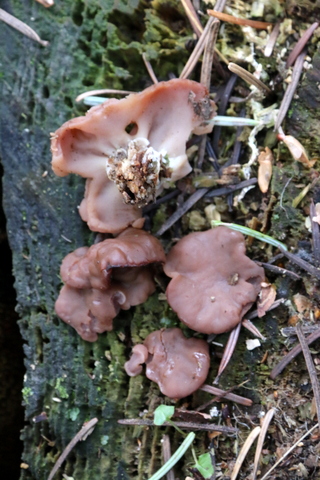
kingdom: Fungi
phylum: Ascomycota
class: Pezizomycetes
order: Pezizales
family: Discinaceae
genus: Discina
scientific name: Discina ancilis
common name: udbredt stenmorkel
